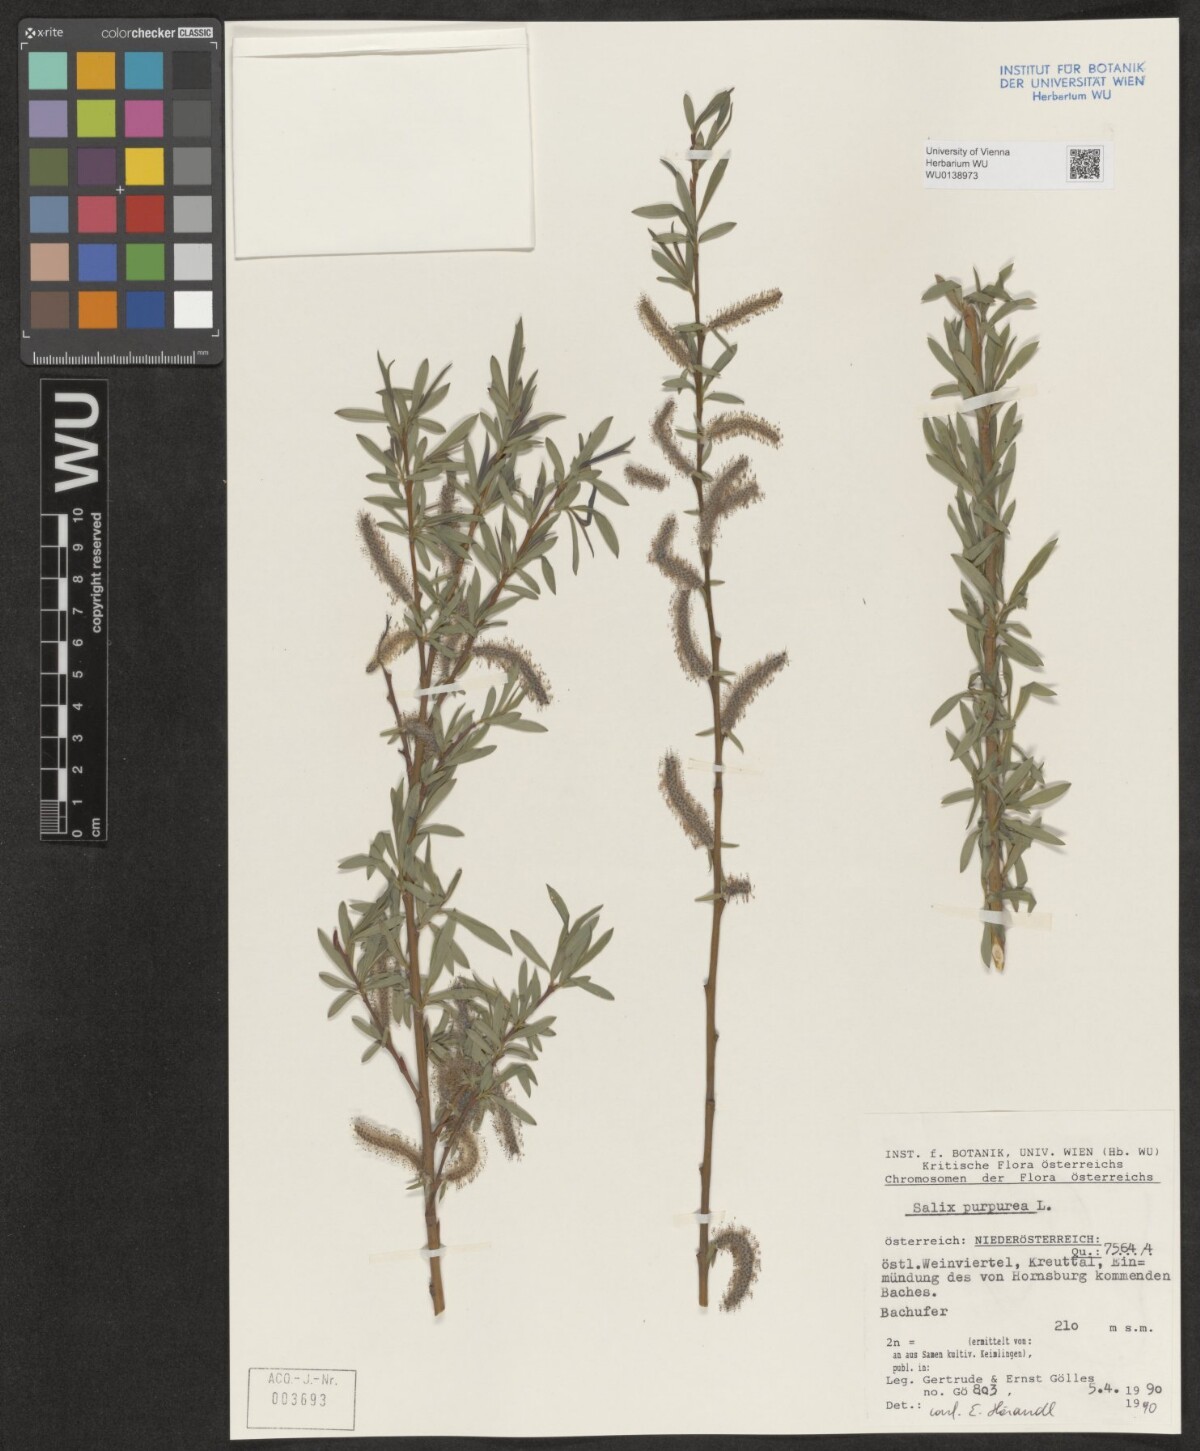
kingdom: Plantae
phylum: Tracheophyta
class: Magnoliopsida
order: Malpighiales
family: Salicaceae
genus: Salix
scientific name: Salix purpurea
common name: Purple willow
